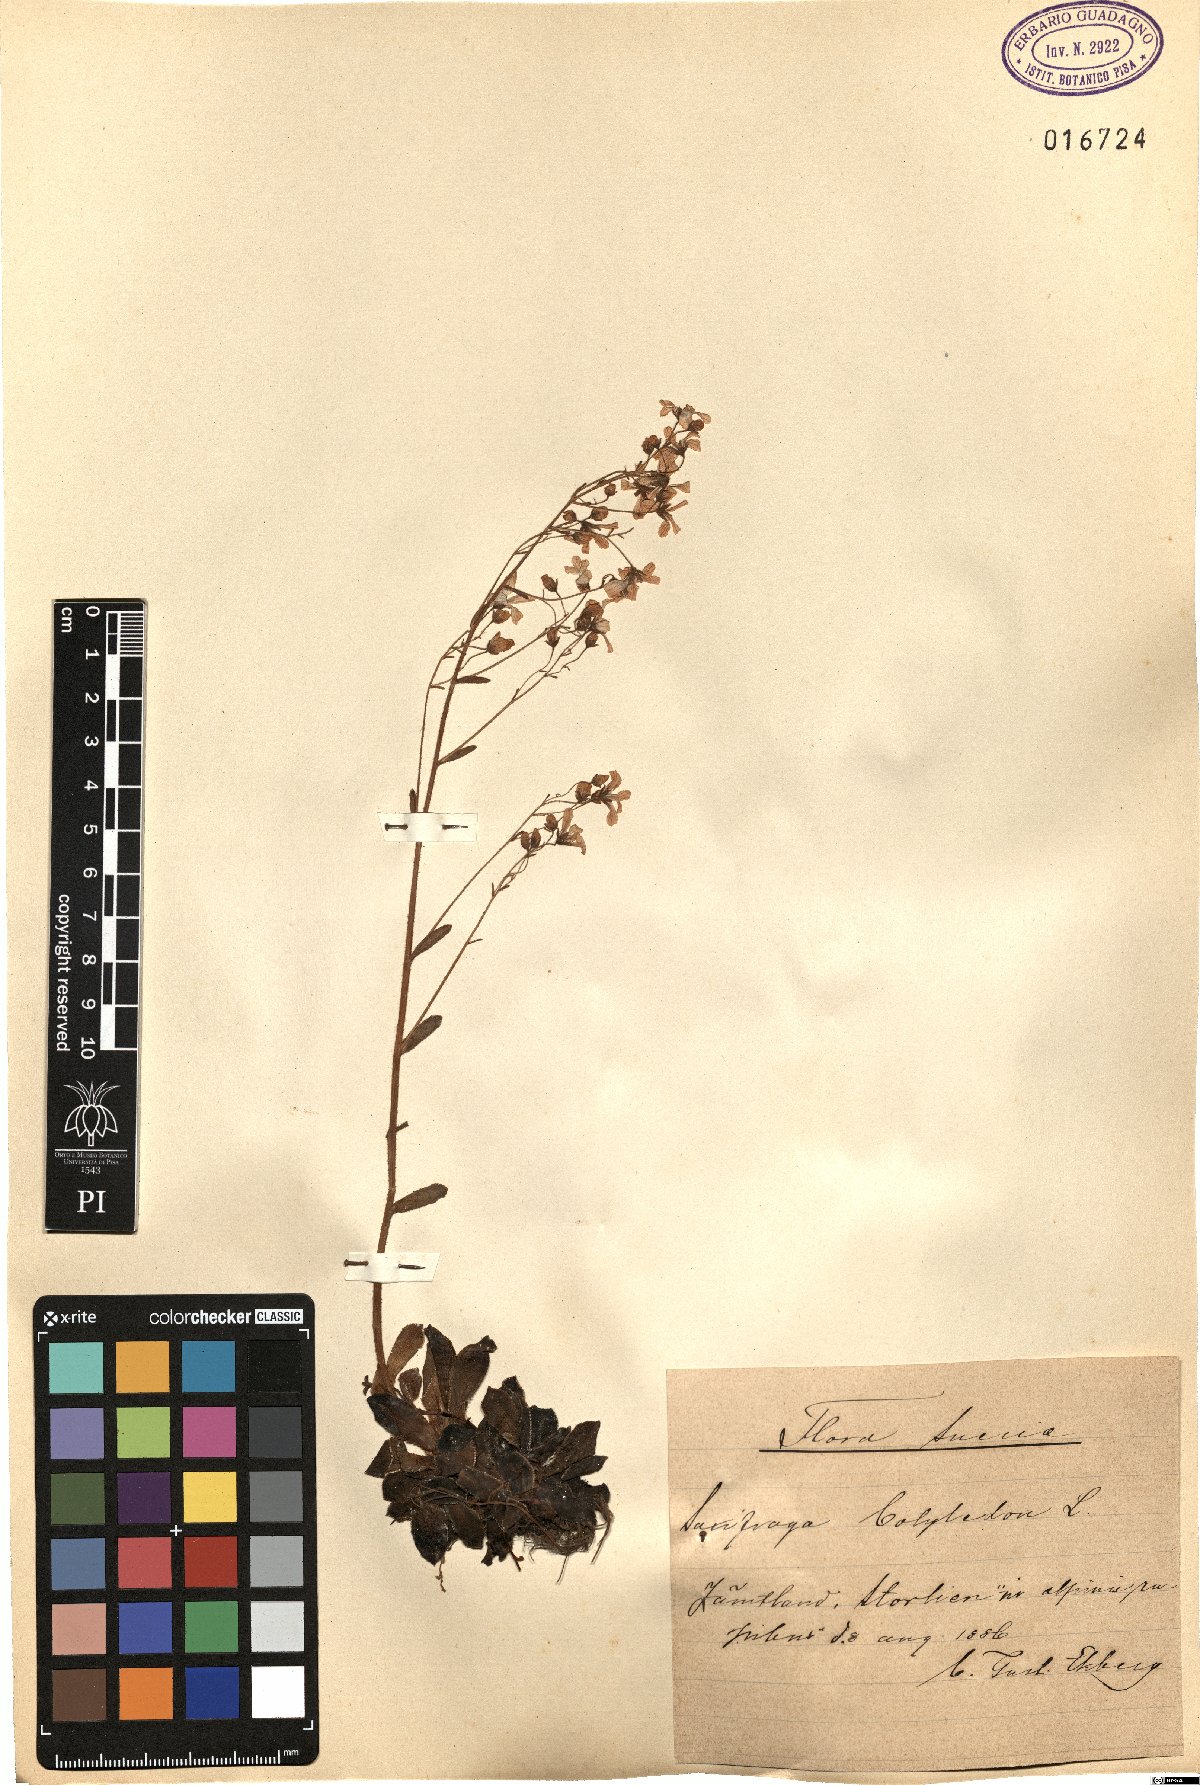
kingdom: Plantae
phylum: Tracheophyta
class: Magnoliopsida
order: Saxifragales
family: Saxifragaceae
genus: Saxifraga
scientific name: Saxifraga cotyledon
